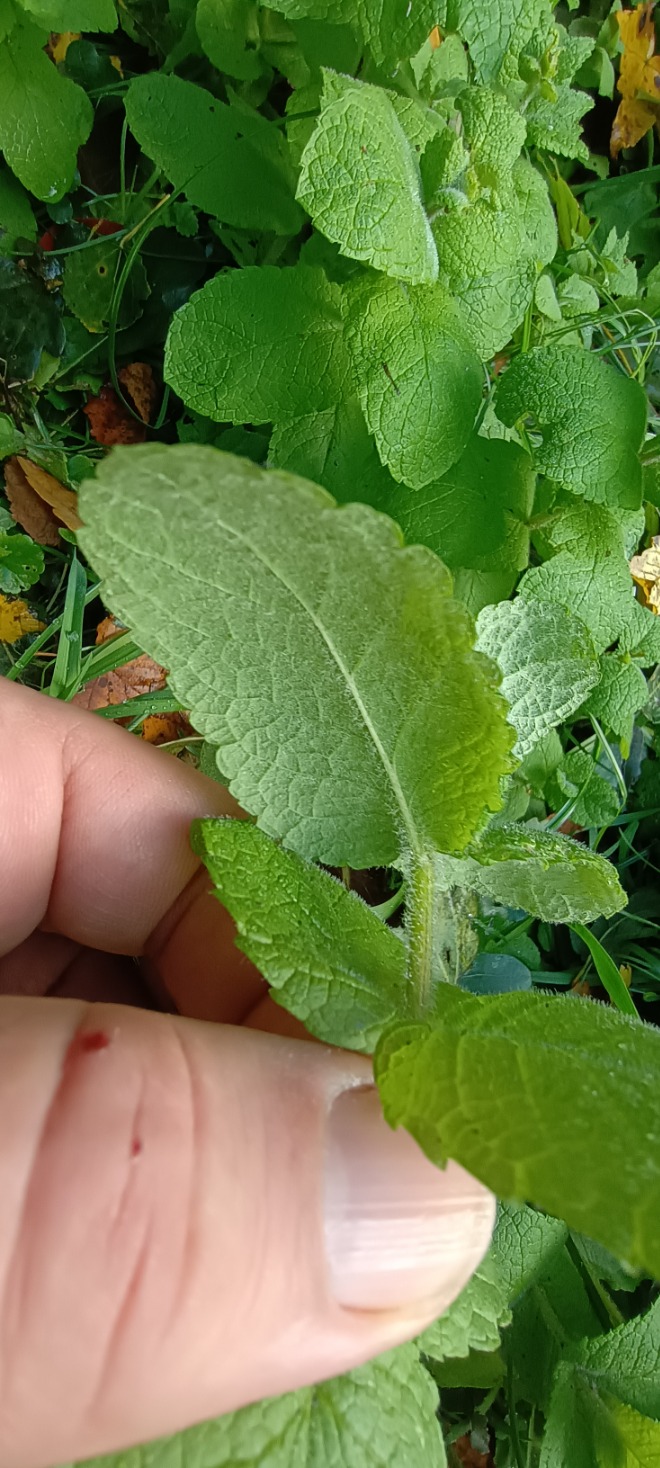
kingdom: Plantae
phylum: Tracheophyta
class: Magnoliopsida
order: Lamiales
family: Lamiaceae
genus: Mentha
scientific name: Mentha suaveolens
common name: Rundbladet mynte
